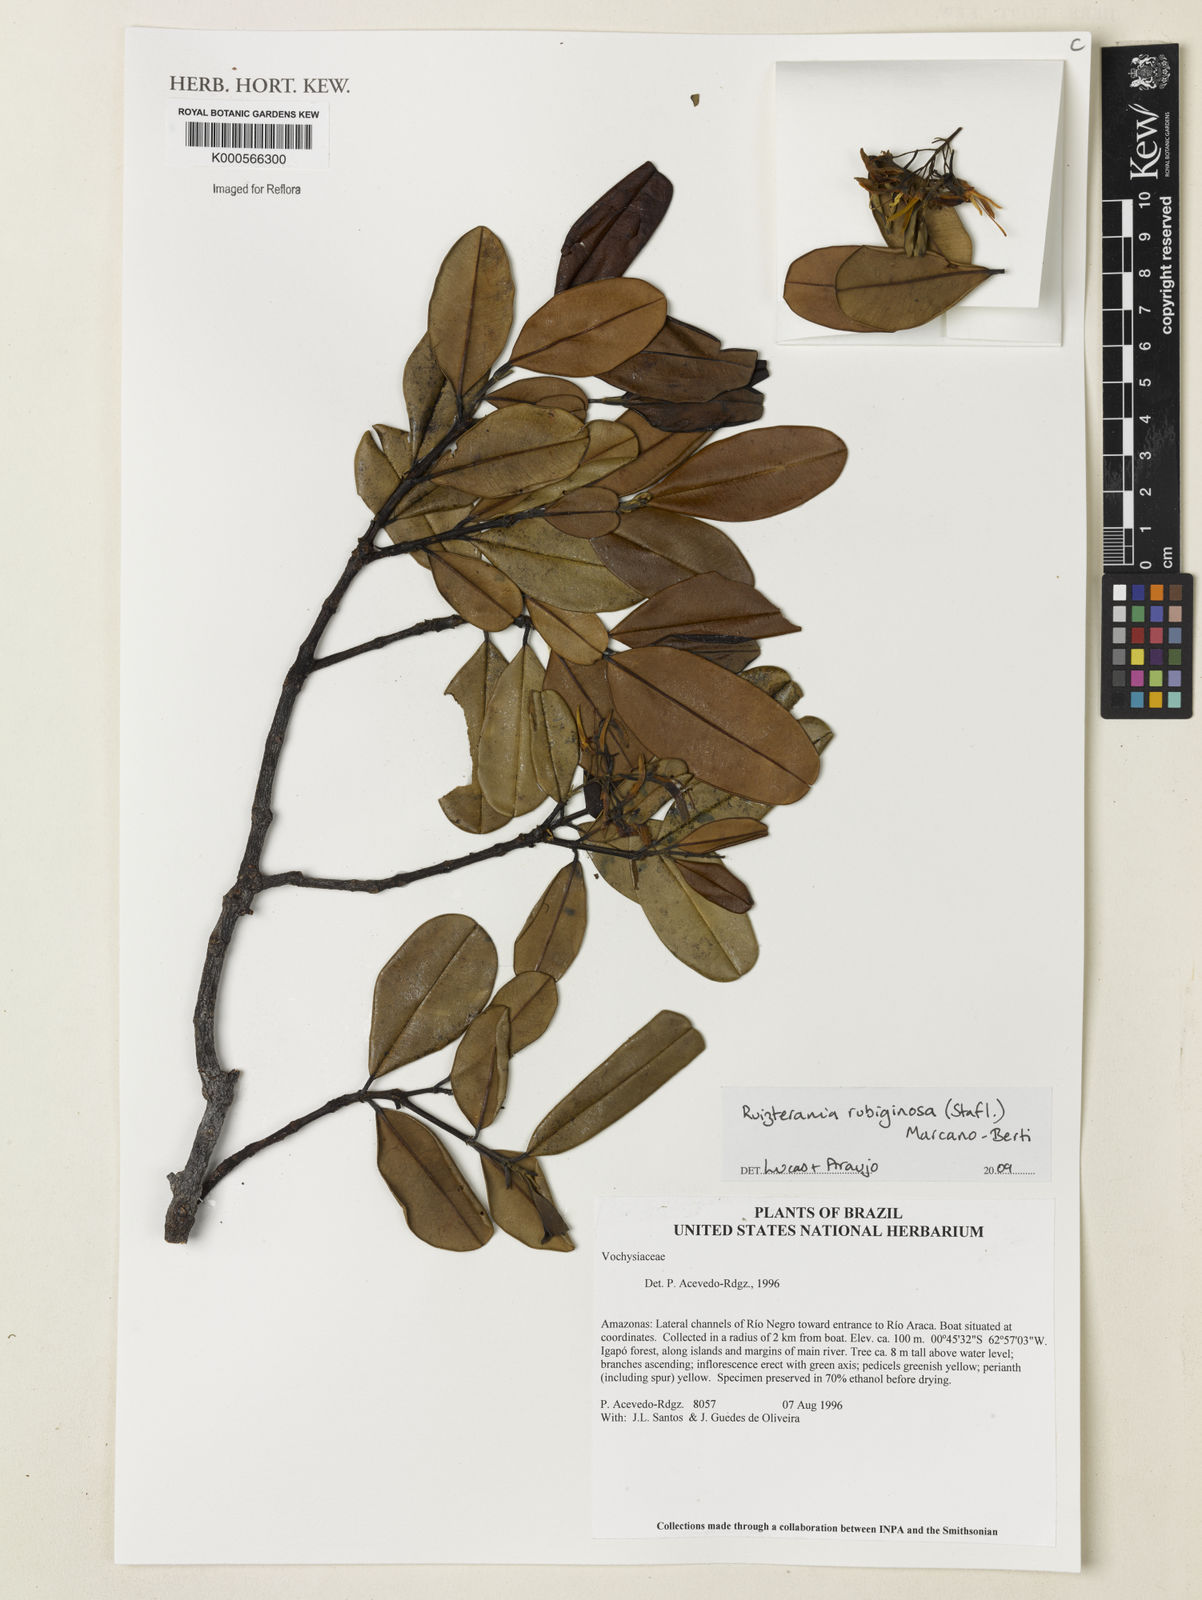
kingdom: Plantae
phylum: Tracheophyta
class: Magnoliopsida
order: Myrtales
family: Vochysiaceae
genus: Ruizterania
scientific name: Ruizterania ferruginea
